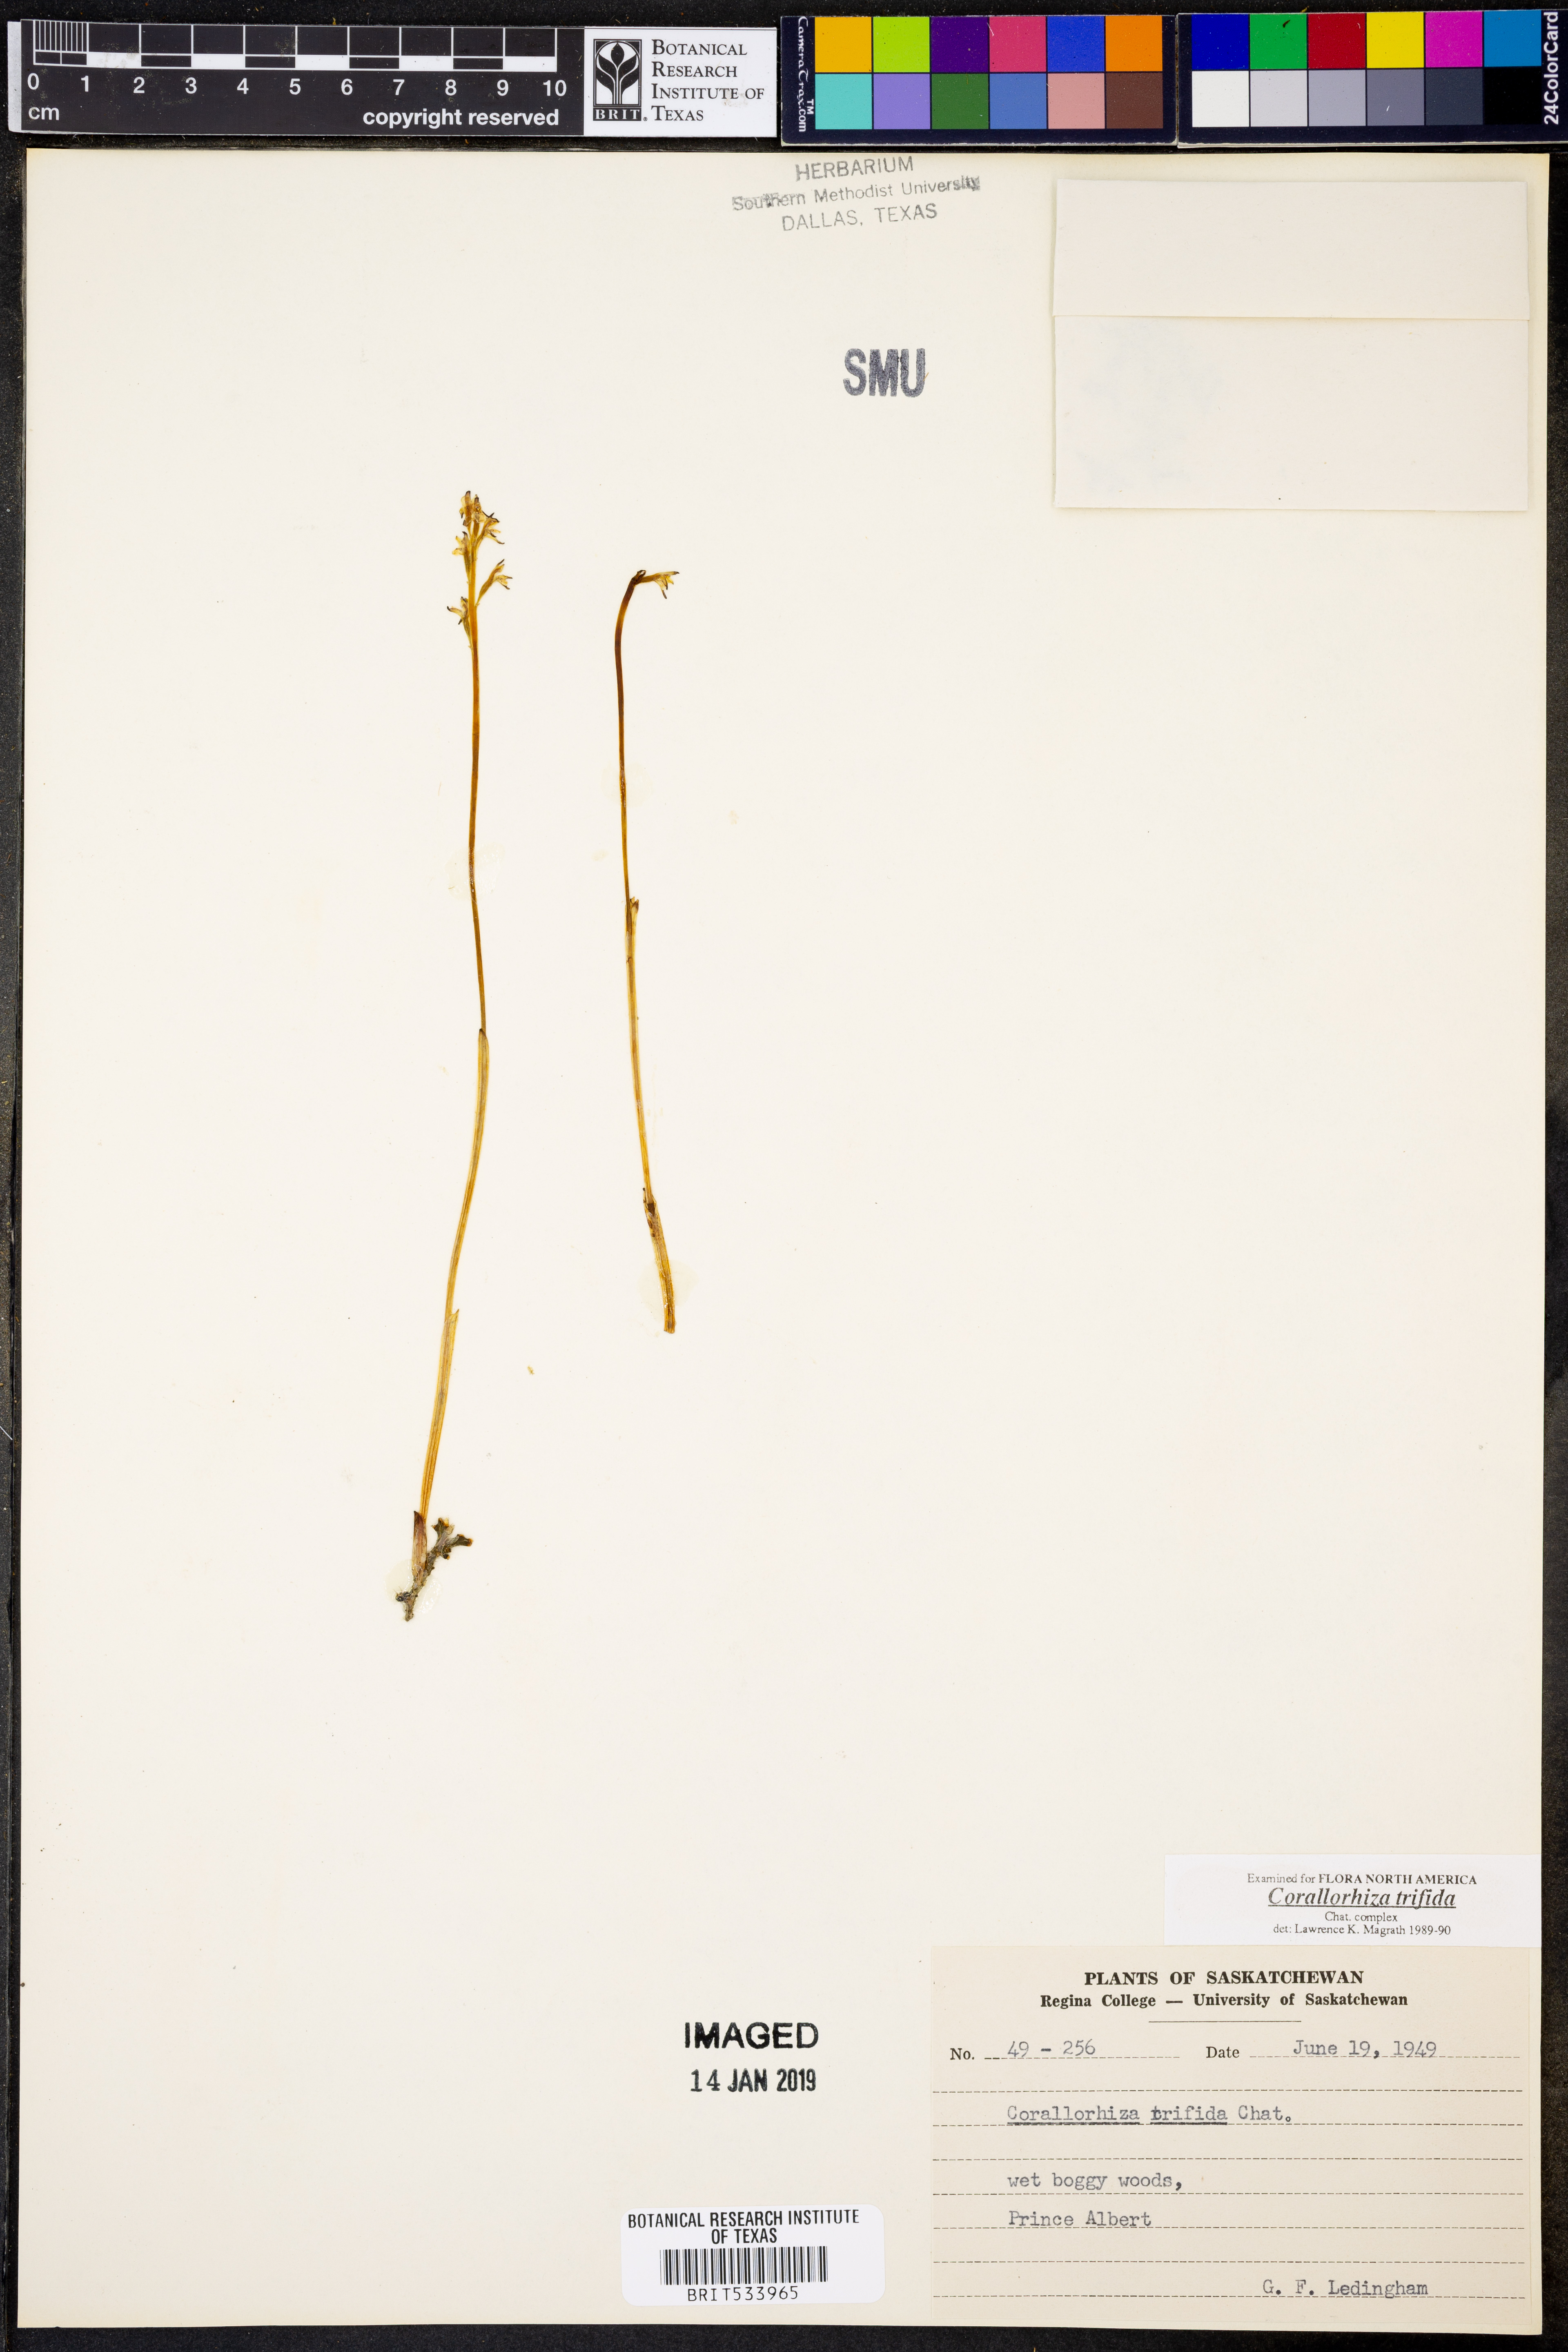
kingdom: Plantae
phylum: Tracheophyta
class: Liliopsida
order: Asparagales
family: Orchidaceae
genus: Corallorhiza
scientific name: Corallorhiza trifida
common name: Yellow coralroot
